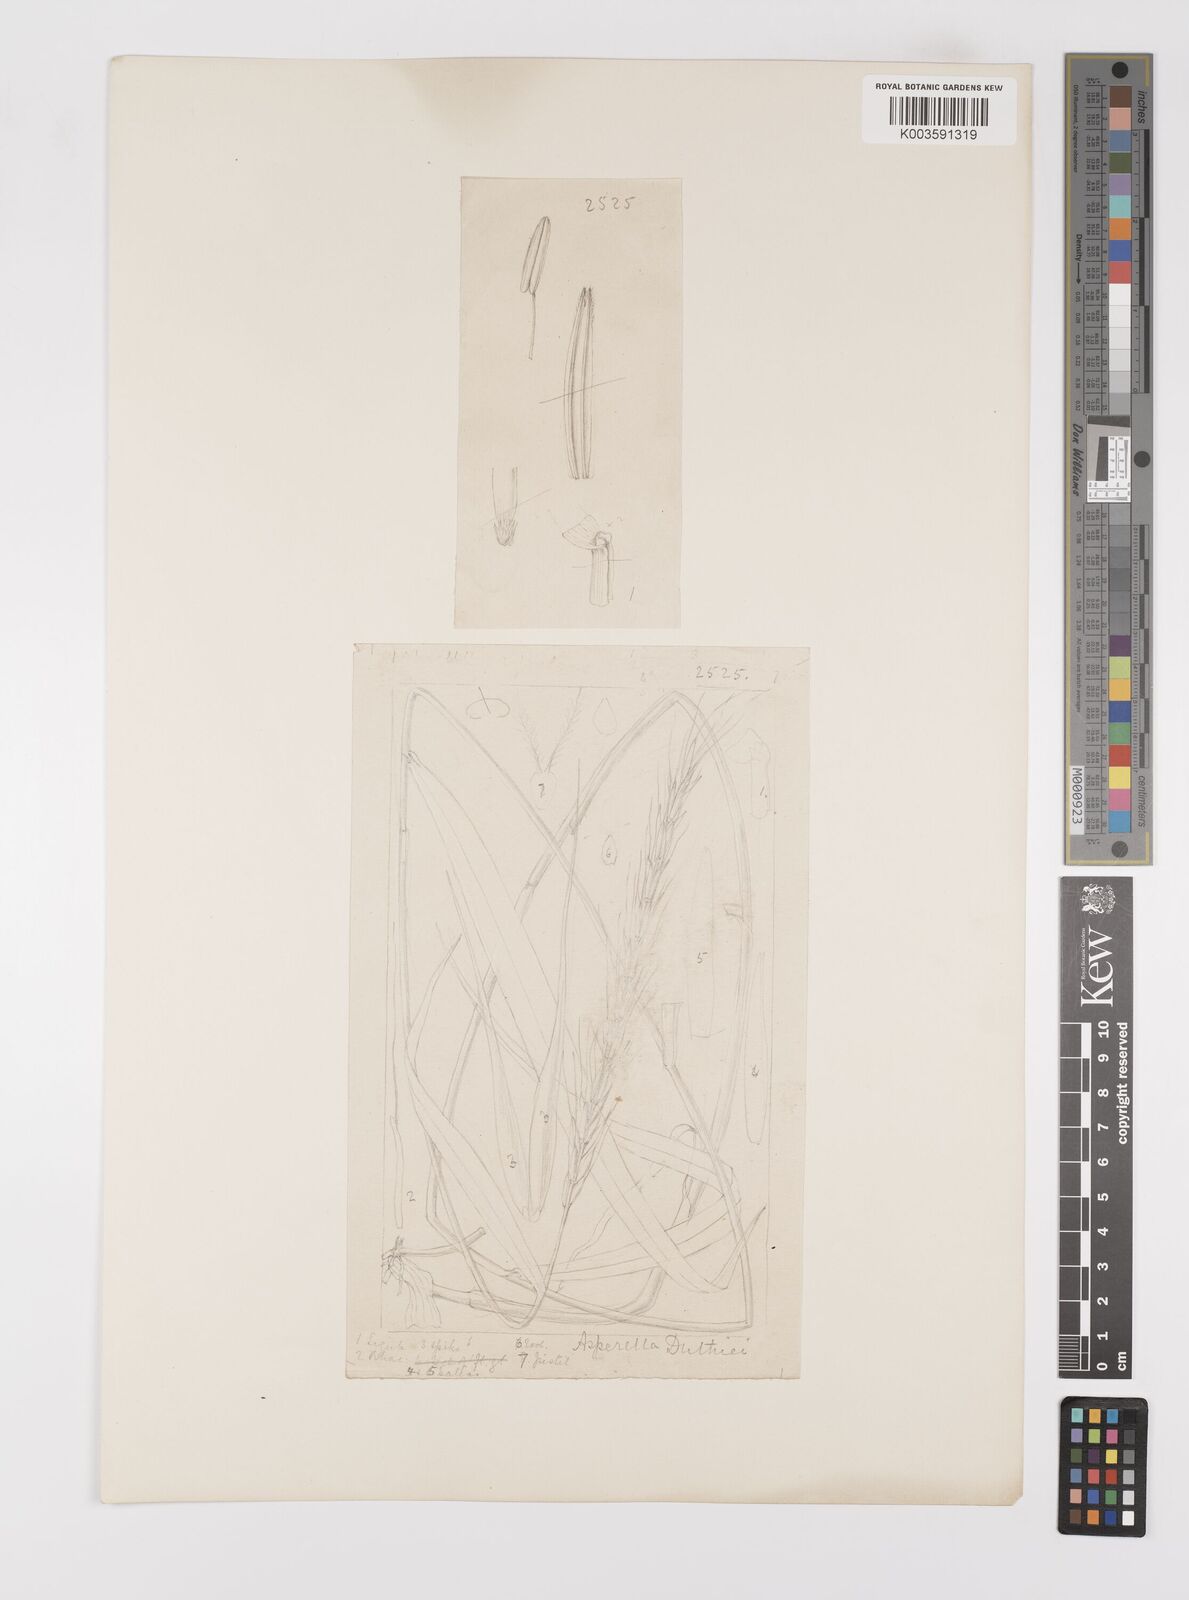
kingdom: Plantae
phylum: Tracheophyta
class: Liliopsida
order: Poales
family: Poaceae
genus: Leymus
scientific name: Leymus duthiei
